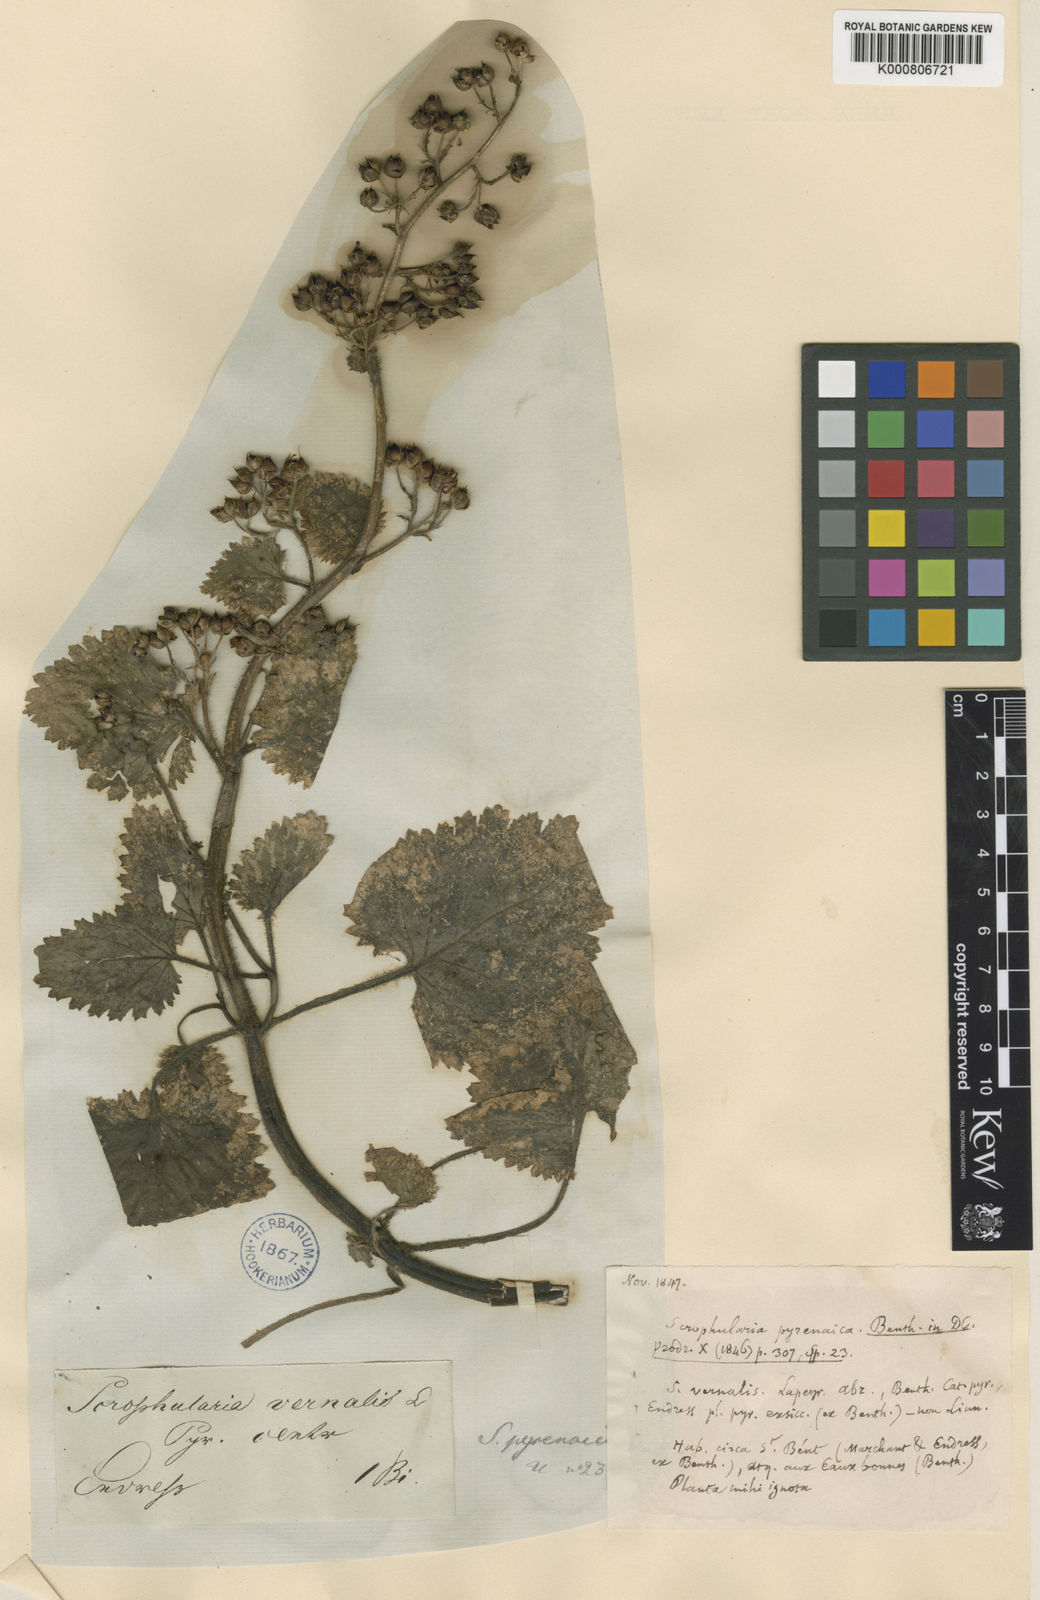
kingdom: Plantae
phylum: Tracheophyta
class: Magnoliopsida
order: Lamiales
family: Scrophulariaceae
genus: Scrophularia
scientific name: Scrophularia vernalis
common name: Yellow figwort
